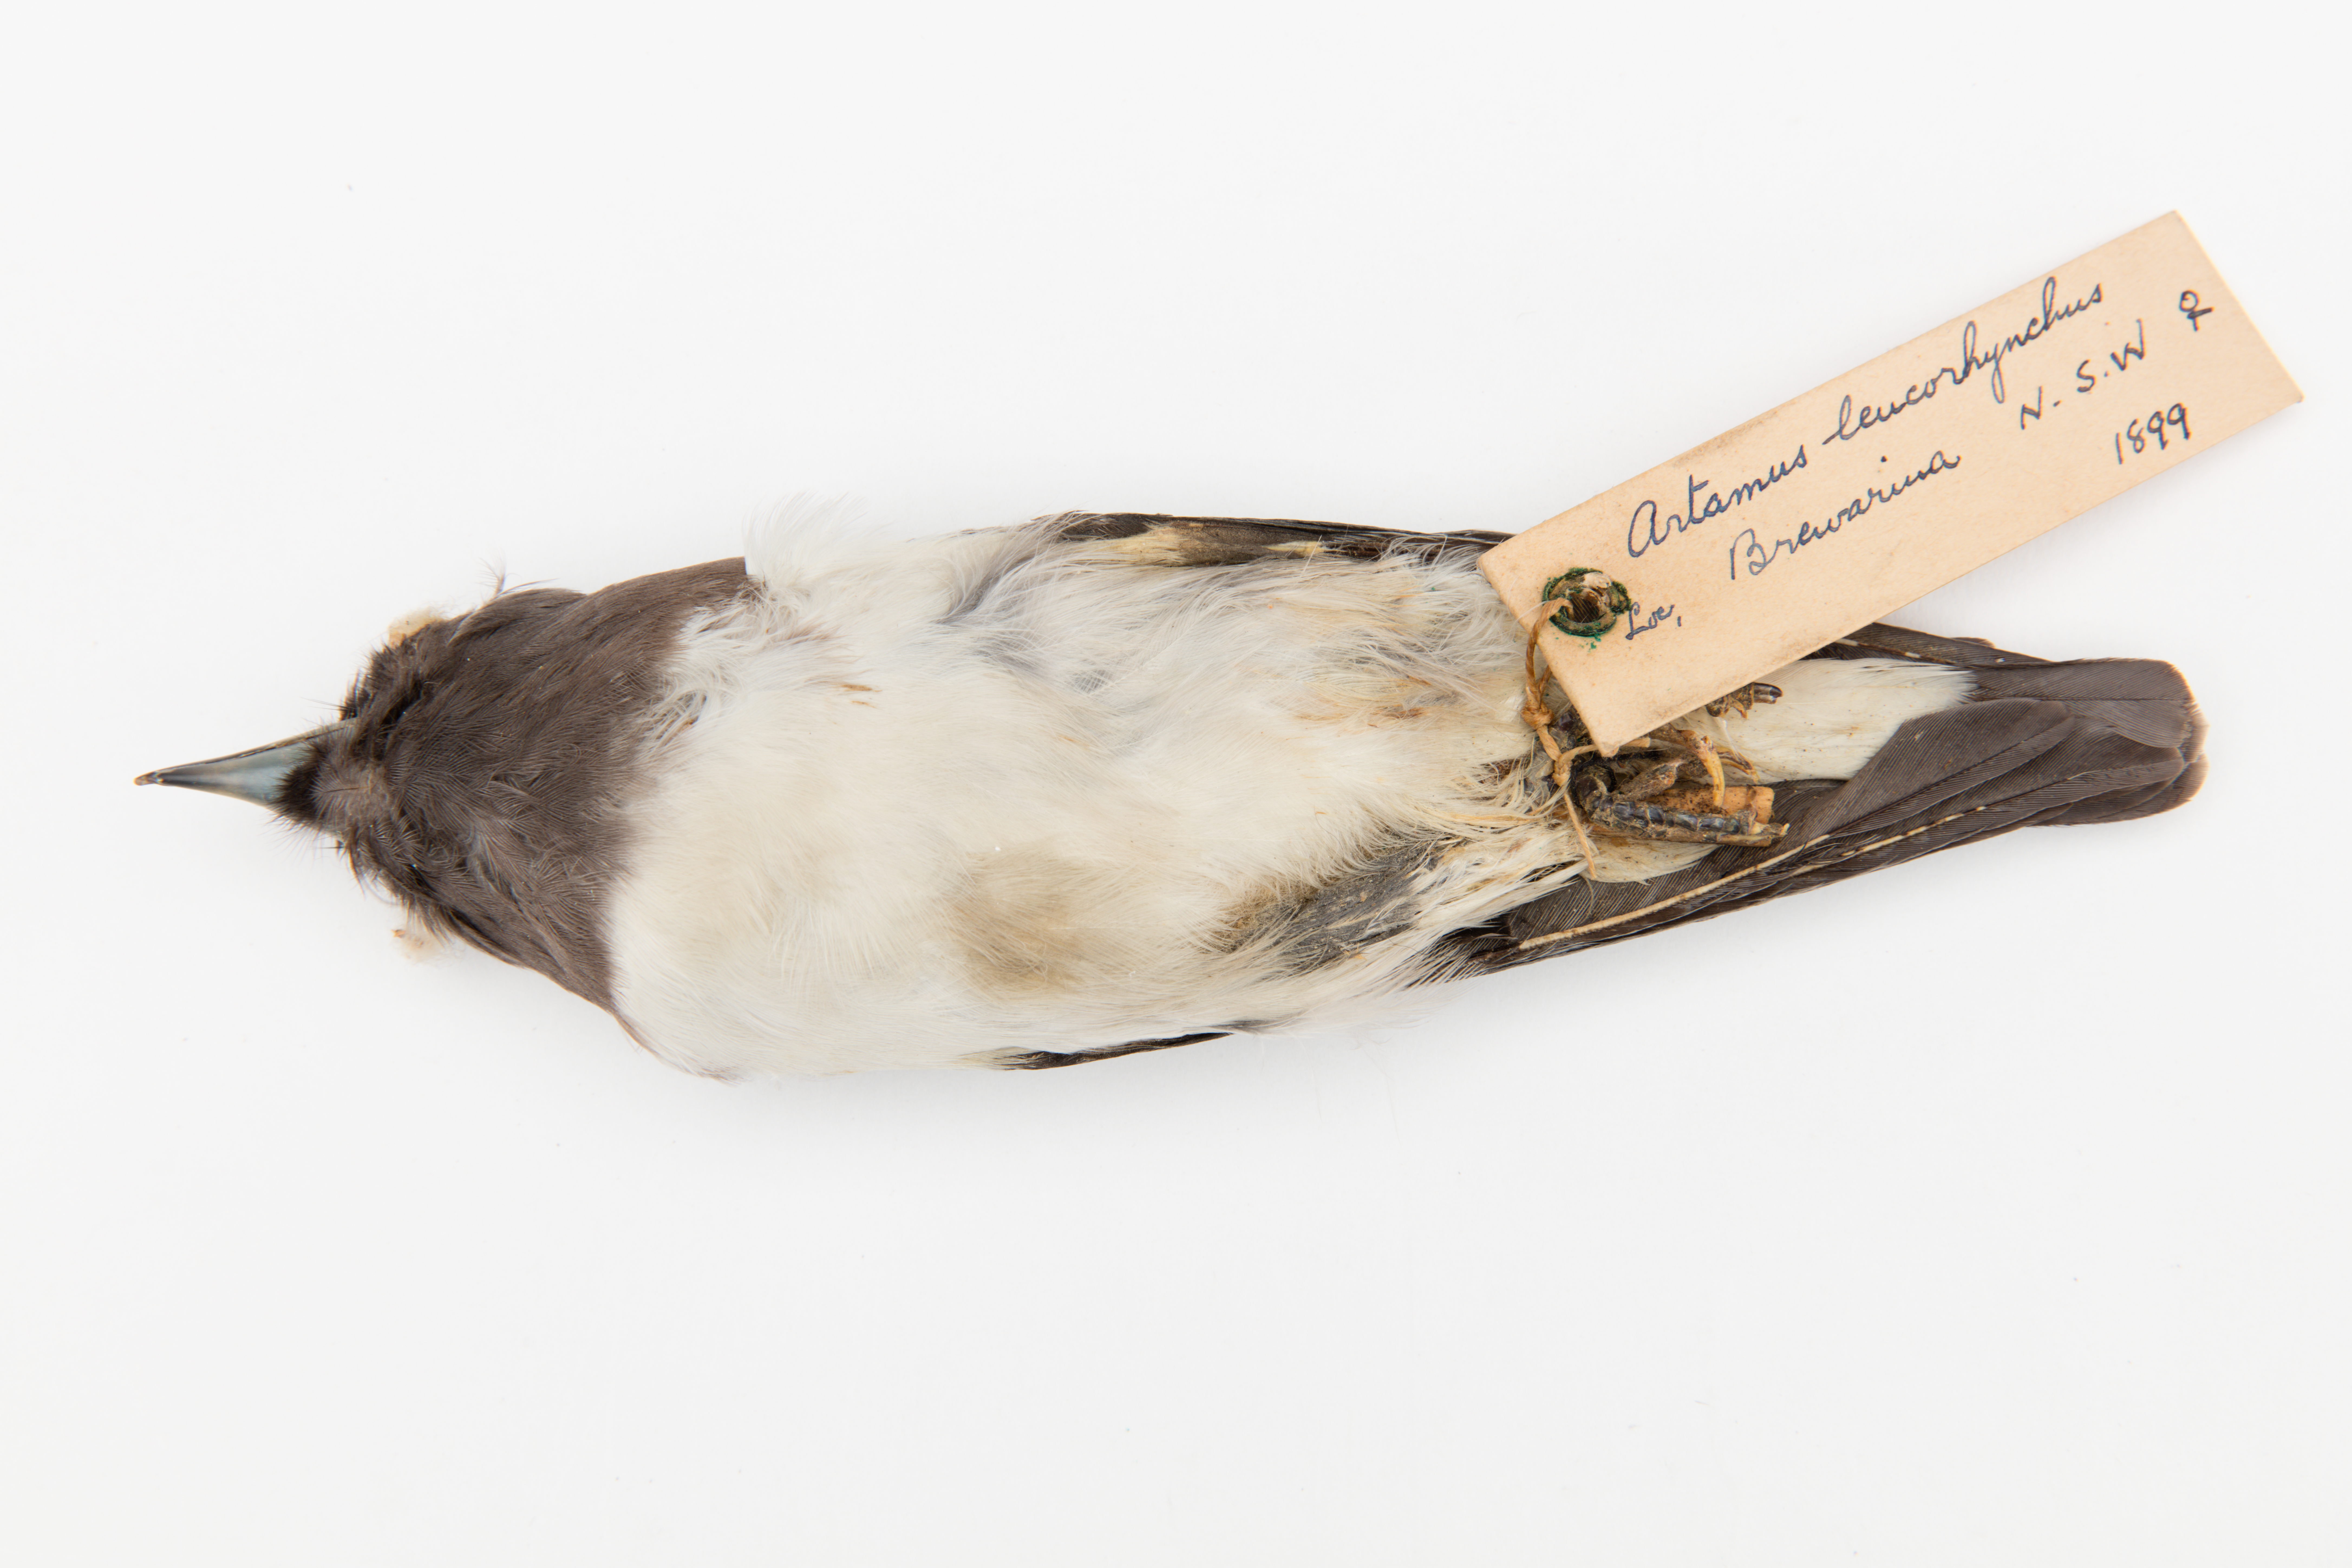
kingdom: Animalia
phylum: Chordata
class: Aves
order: Passeriformes
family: Artamidae
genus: Artamus
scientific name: Artamus leucoryn
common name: White-breasted woodswallow
